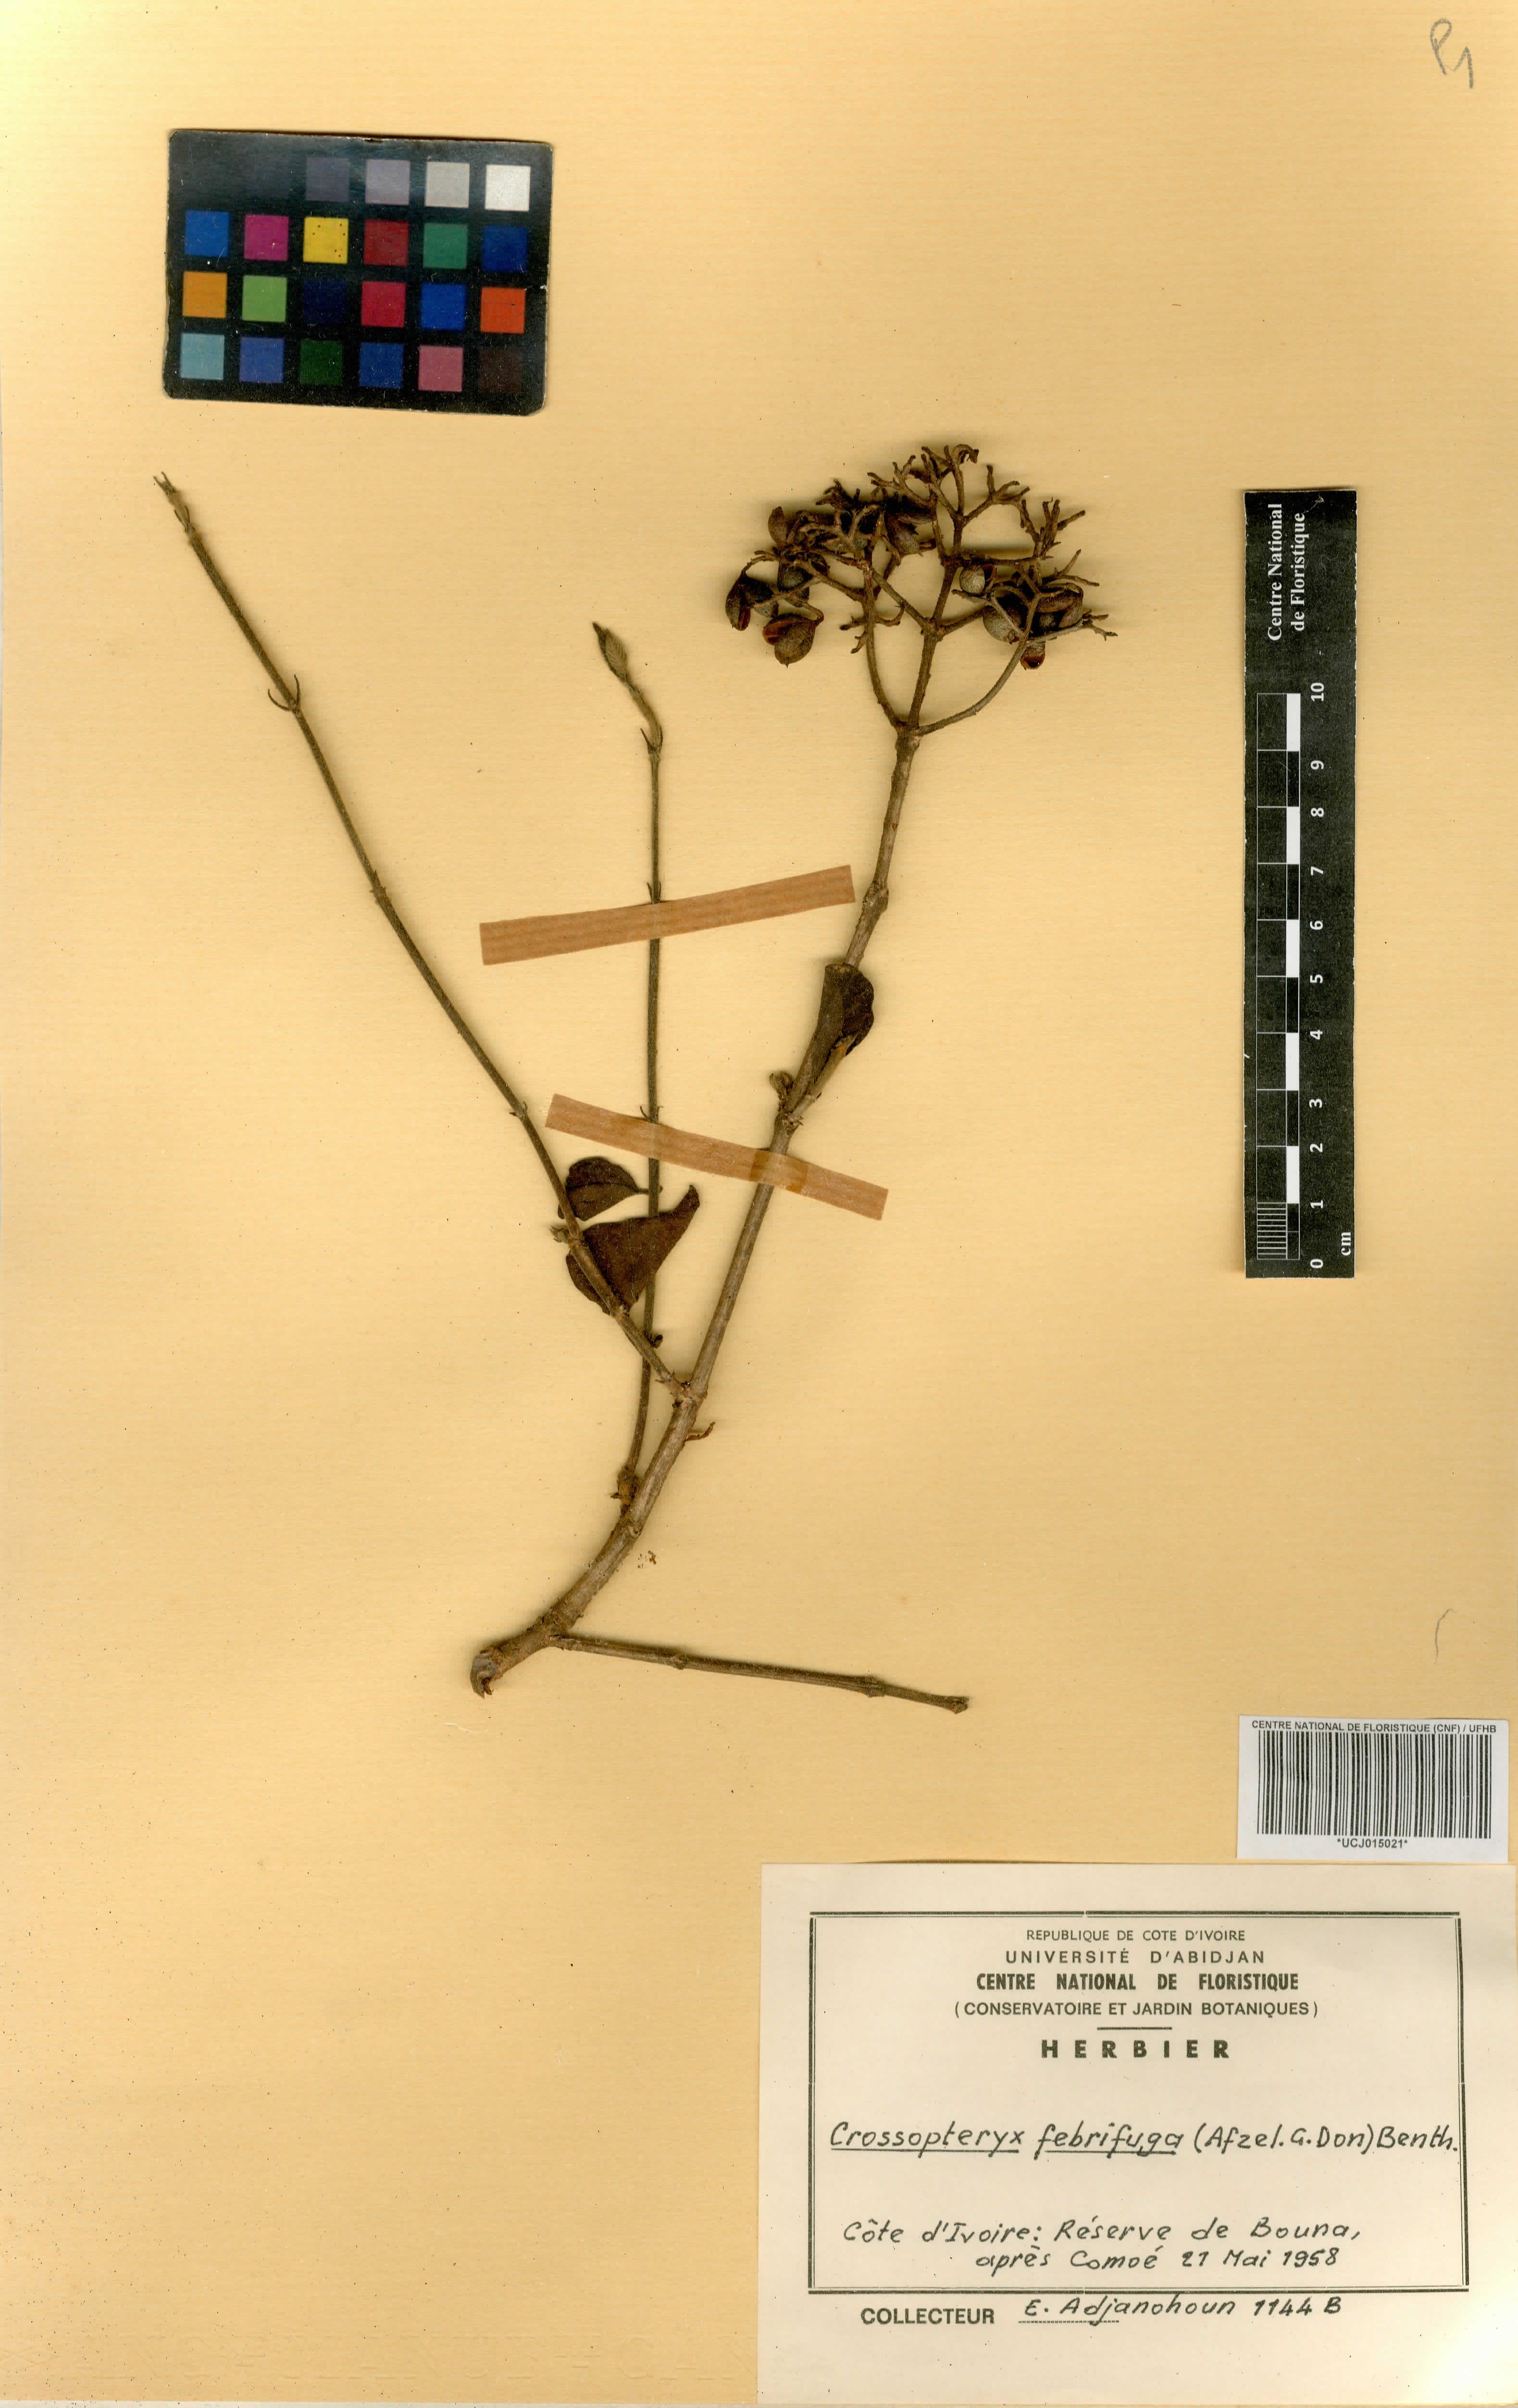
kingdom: Plantae
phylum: Tracheophyta
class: Magnoliopsida
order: Gentianales
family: Rubiaceae
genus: Crossopteryx
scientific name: Crossopteryx febrifuga
